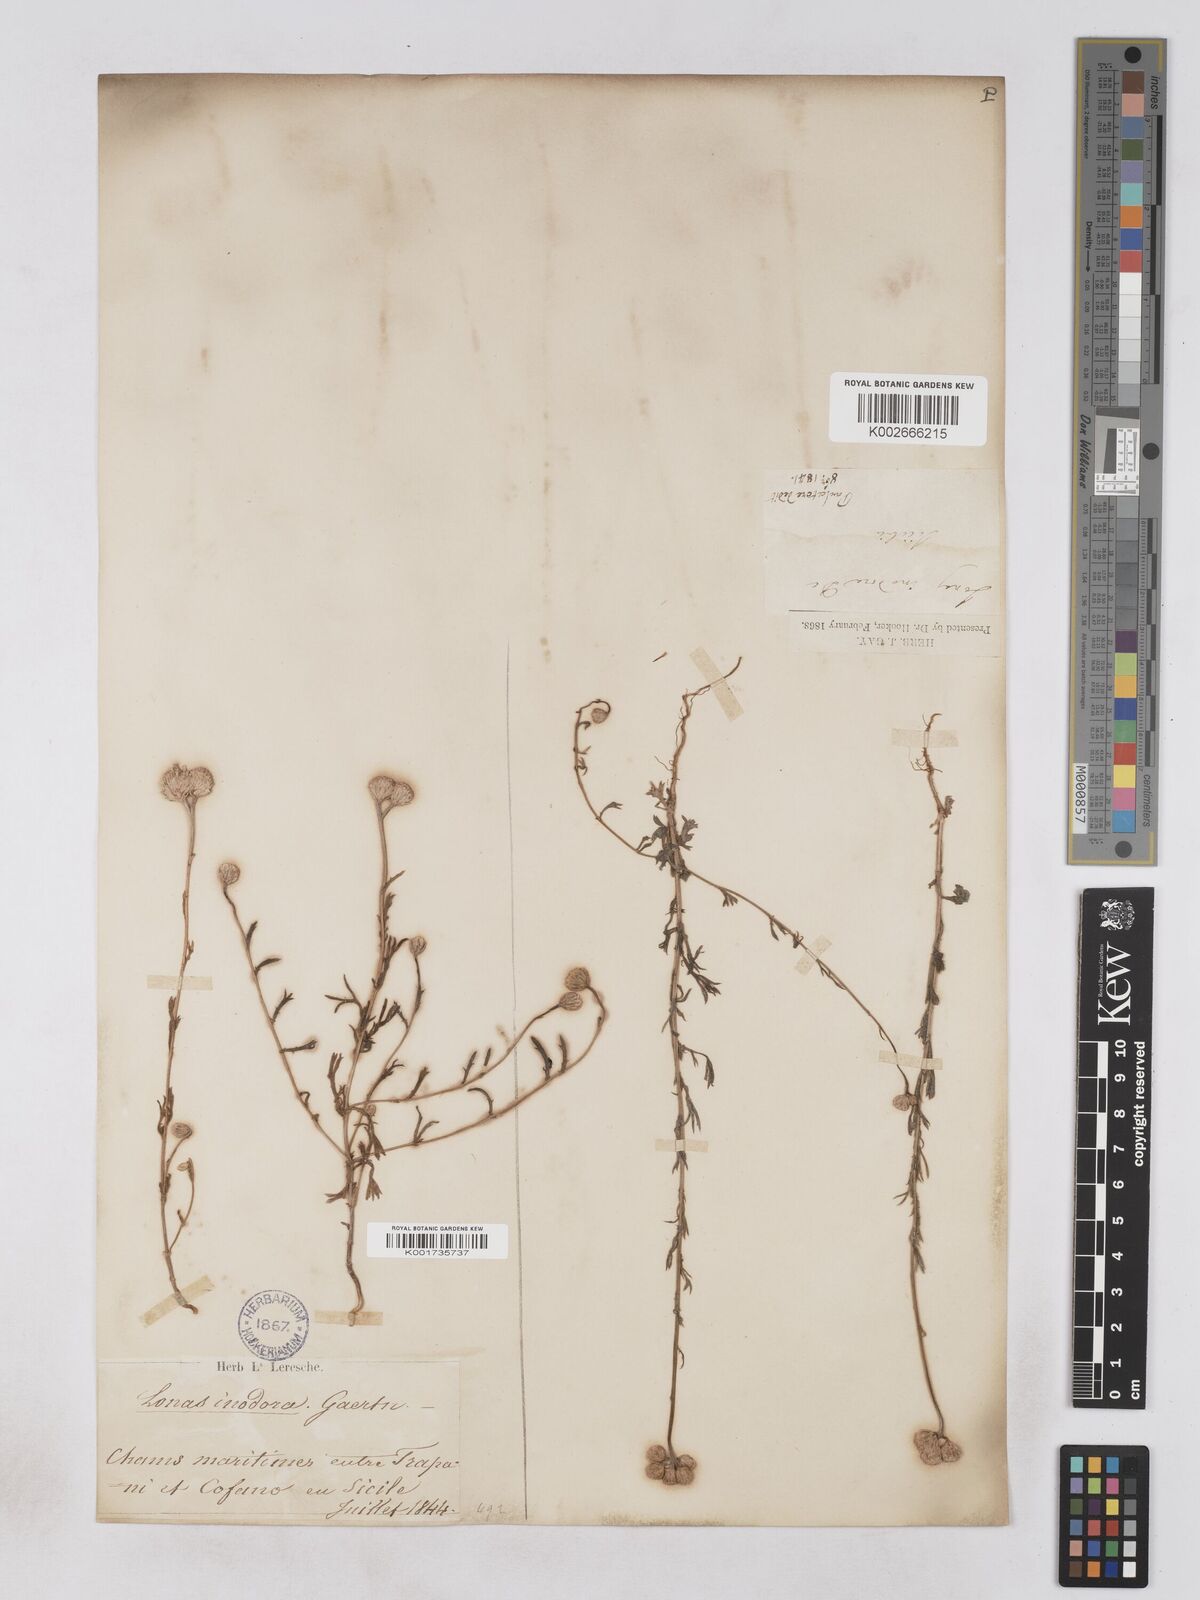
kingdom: Plantae
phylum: Tracheophyta
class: Magnoliopsida
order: Asterales
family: Asteraceae
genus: Lonas
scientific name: Lonas
